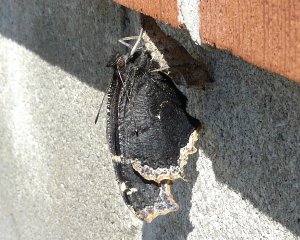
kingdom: Animalia
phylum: Arthropoda
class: Insecta
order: Lepidoptera
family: Nymphalidae
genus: Nymphalis
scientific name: Nymphalis antiopa
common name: Mourning Cloak
